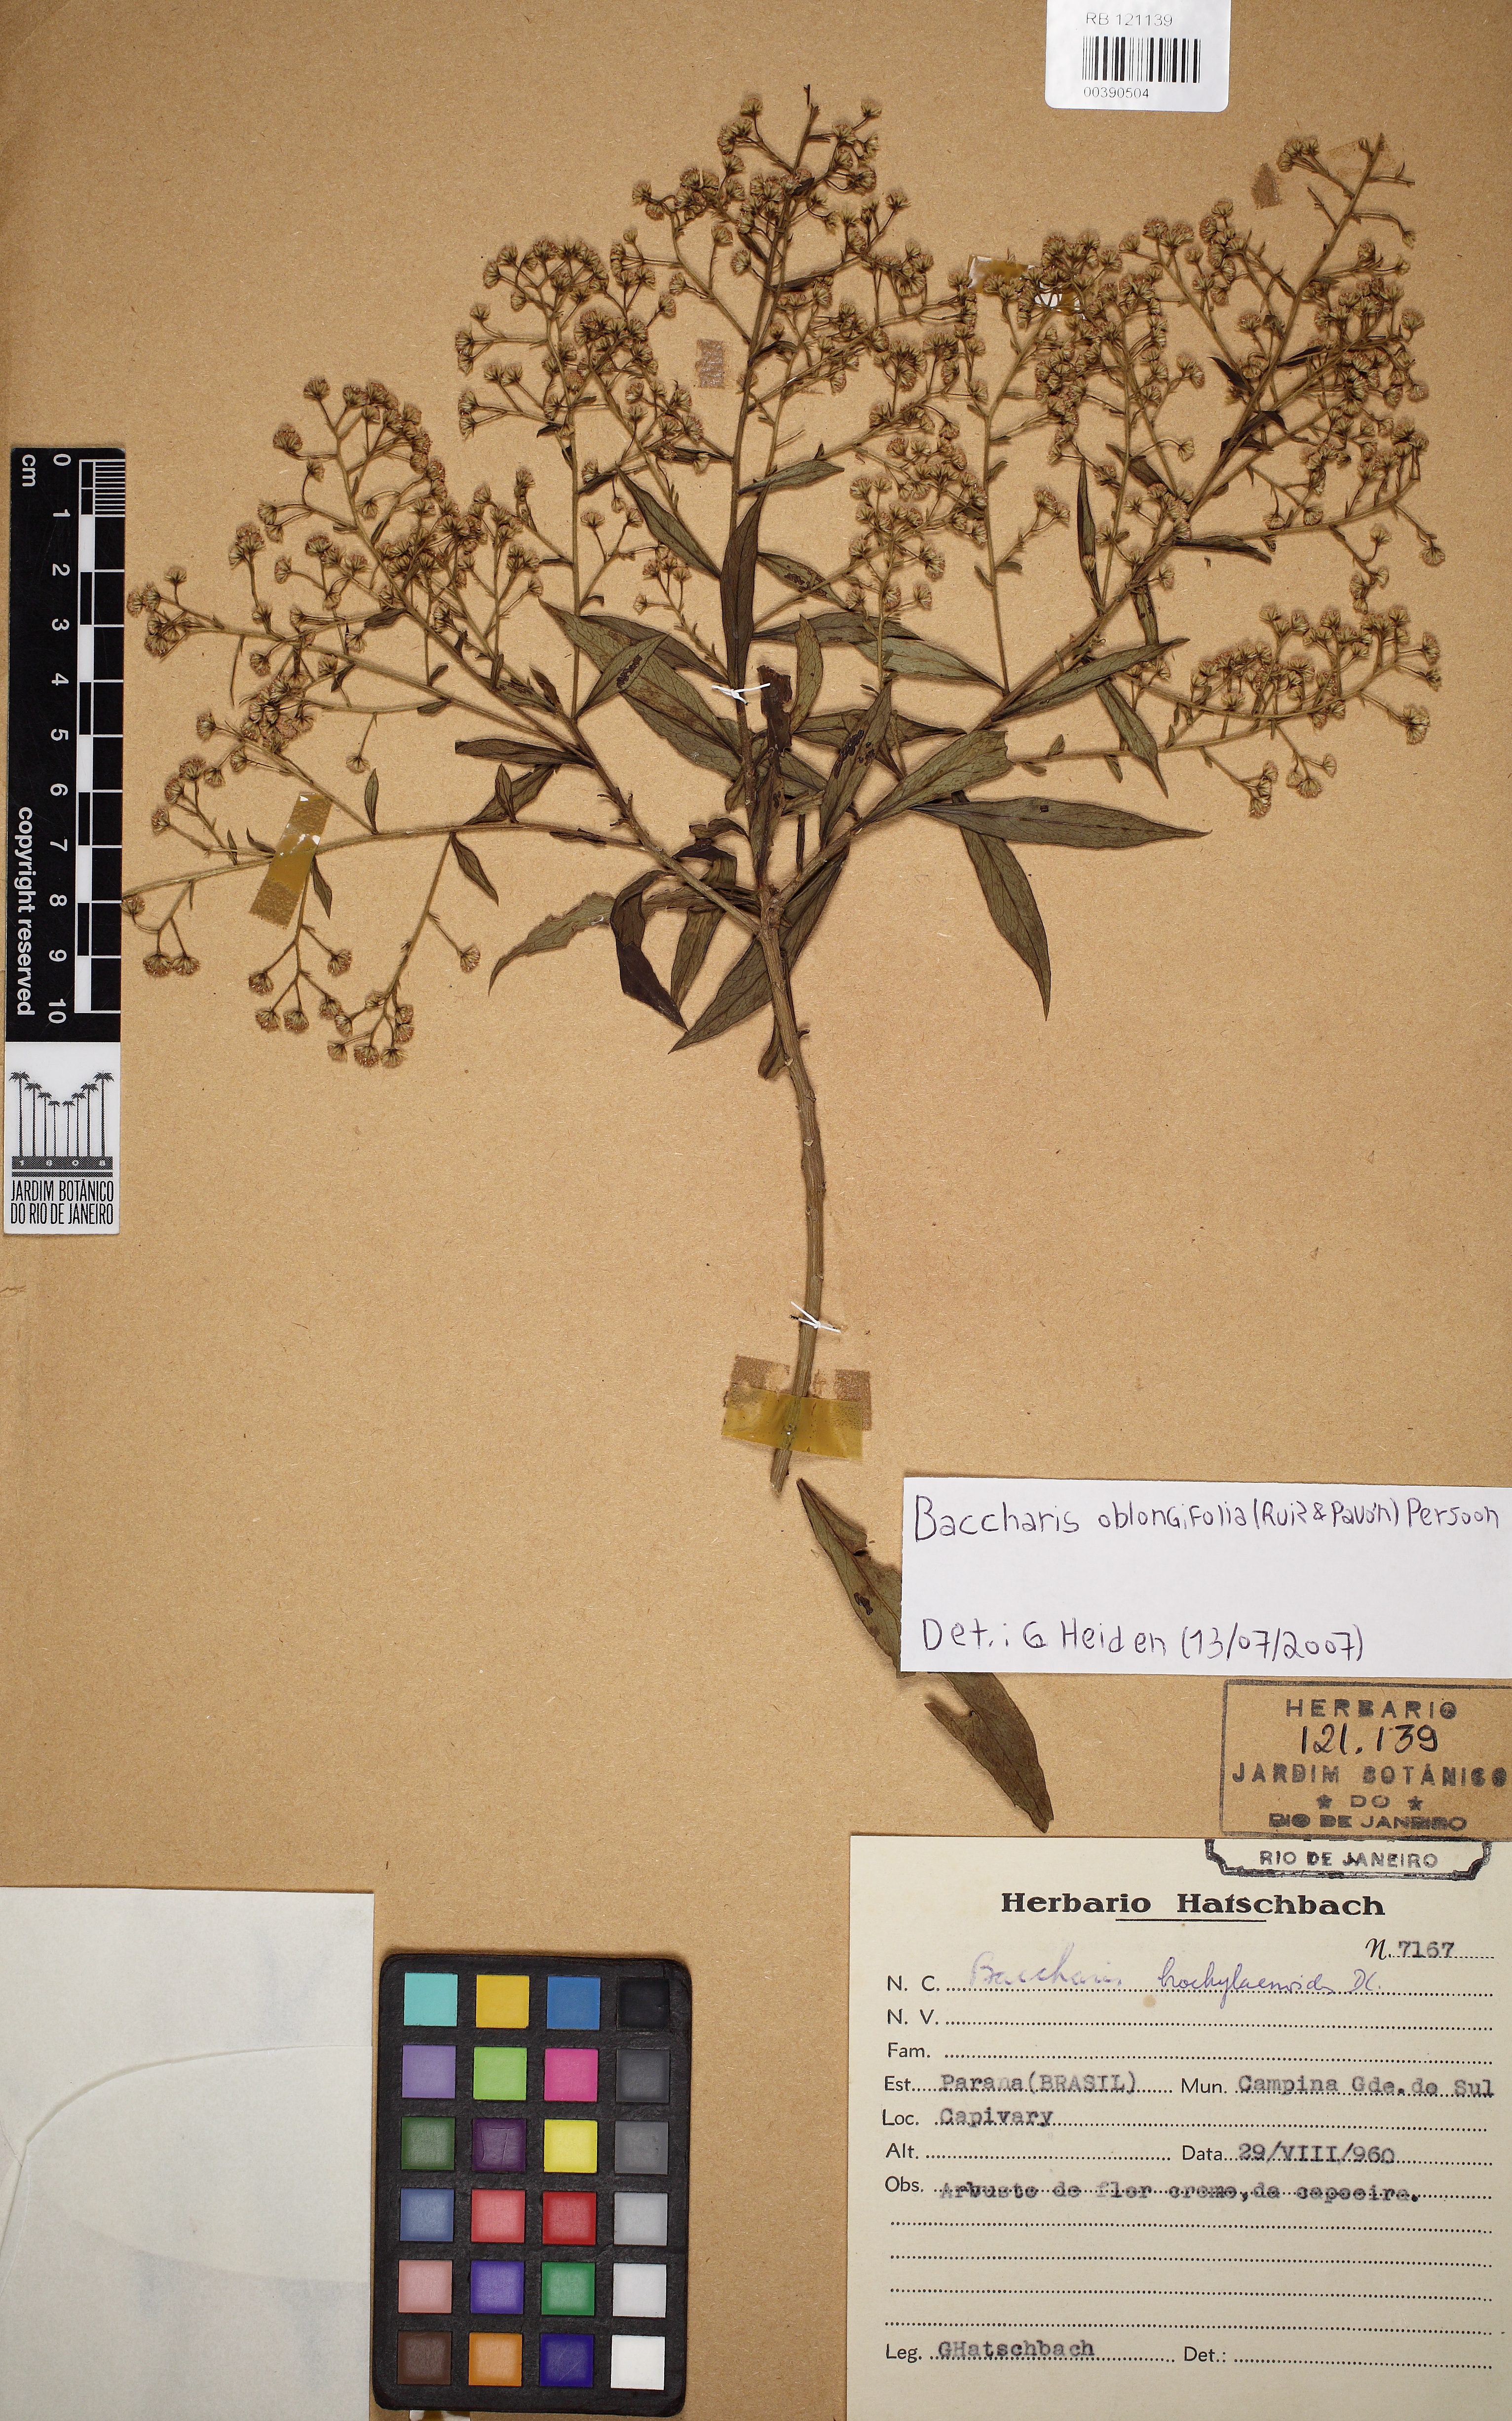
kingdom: Plantae
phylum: Tracheophyta
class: Magnoliopsida
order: Asterales
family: Asteraceae
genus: Baccharis
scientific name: Baccharis oblongifolia
